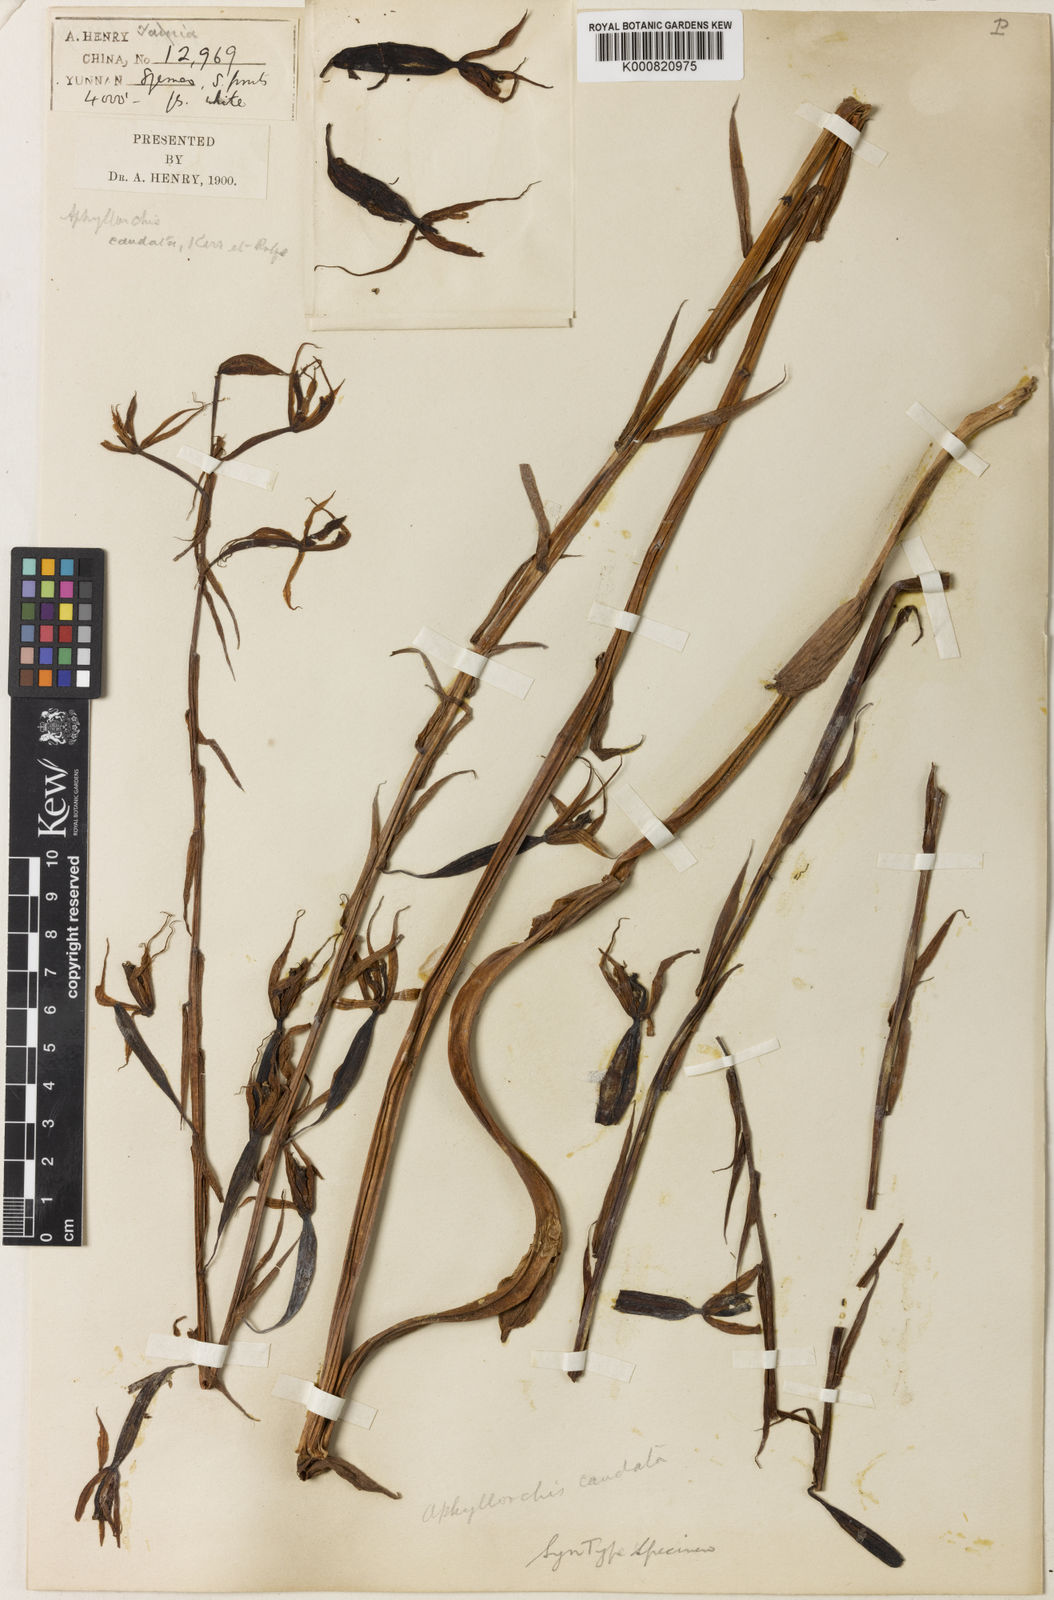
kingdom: Plantae
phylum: Tracheophyta
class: Liliopsida
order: Asparagales
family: Orchidaceae
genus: Aphyllorchis
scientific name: Aphyllorchis caudata
